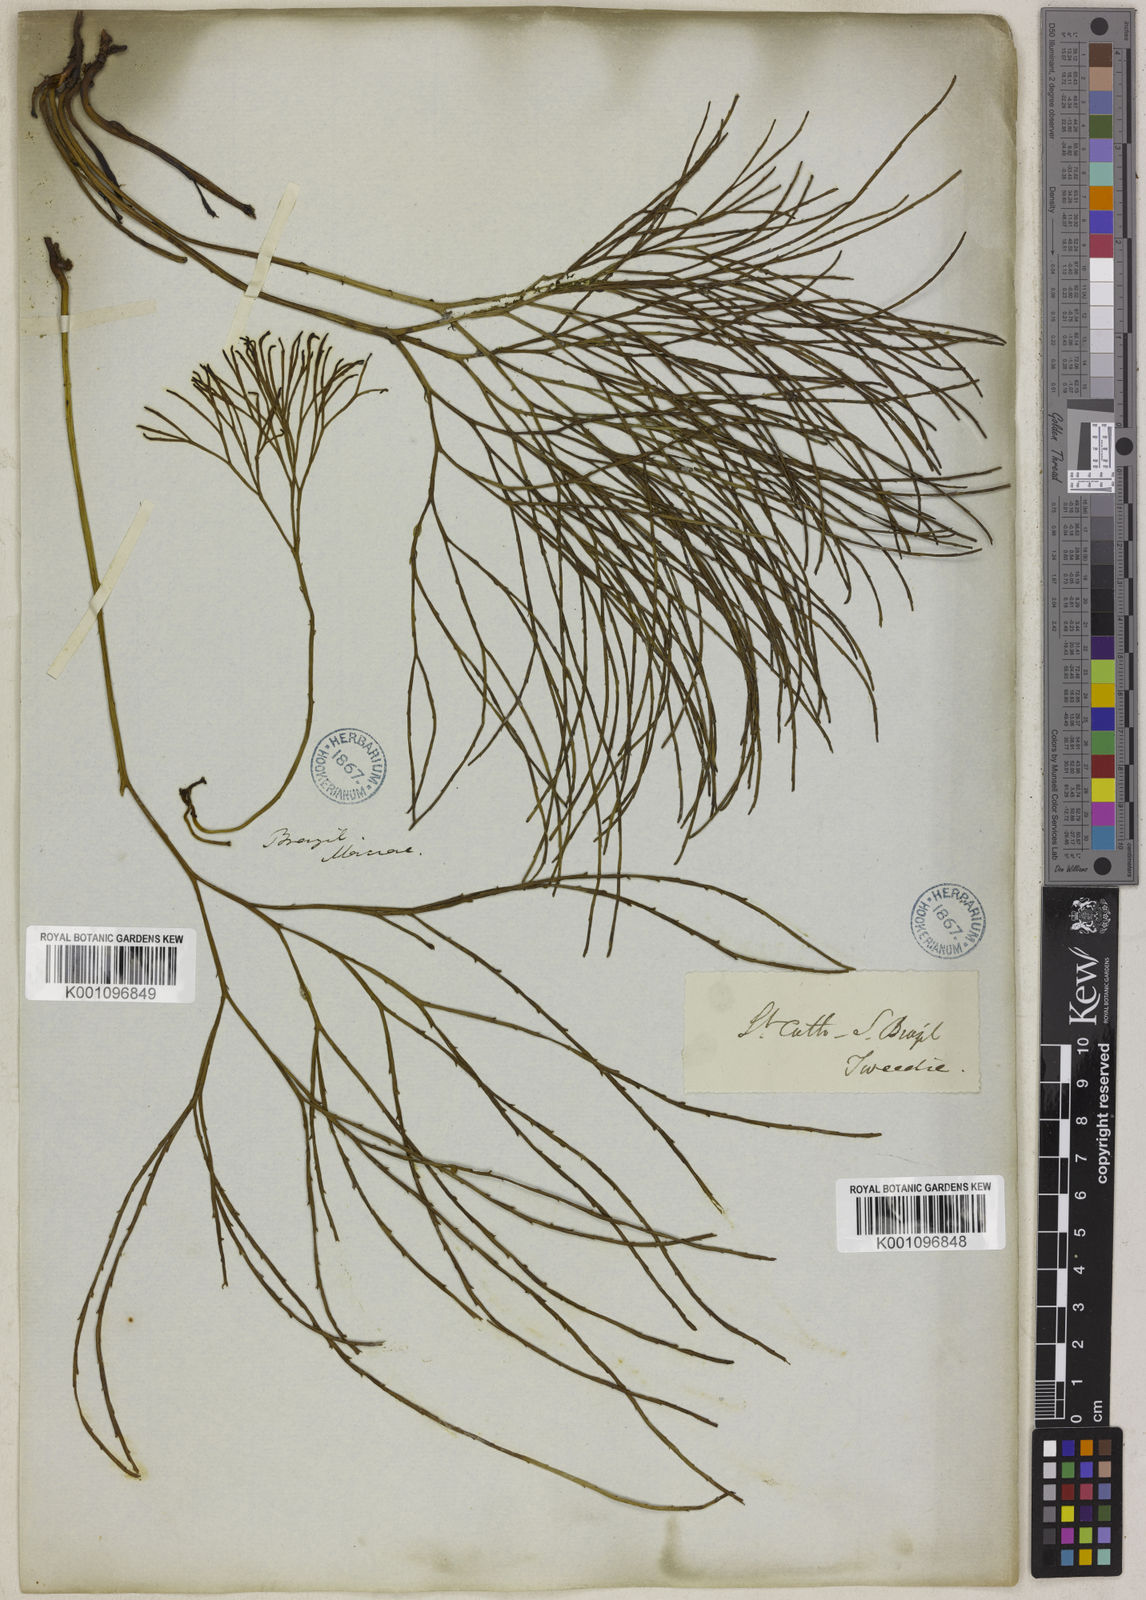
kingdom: Plantae
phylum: Tracheophyta
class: Polypodiopsida
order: Psilotales
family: Psilotaceae
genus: Psilotum
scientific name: Psilotum nudum
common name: Skeleton fork fern
